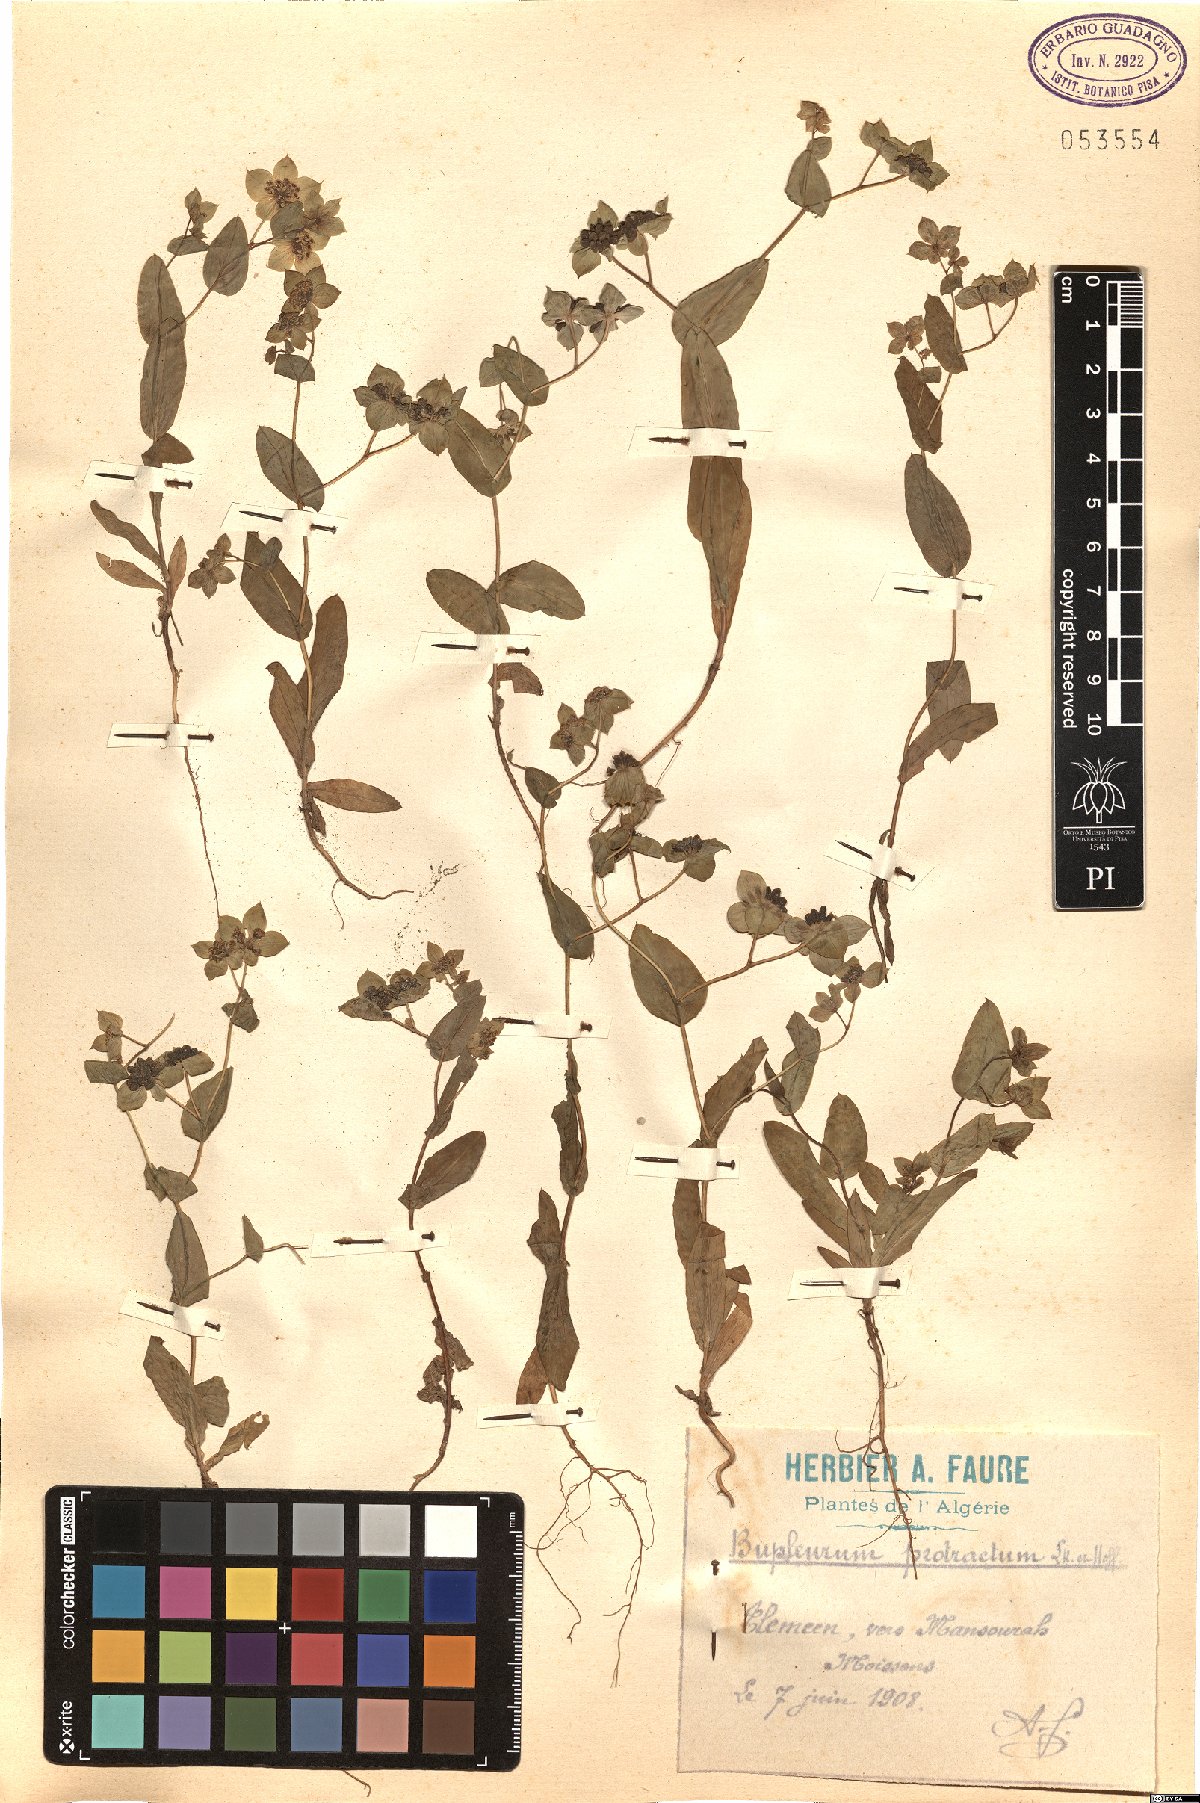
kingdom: Plantae
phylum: Tracheophyta
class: Magnoliopsida
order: Apiales
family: Apiaceae
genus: Bupleurum
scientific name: Bupleurum subovatum
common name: False thorow-wax
